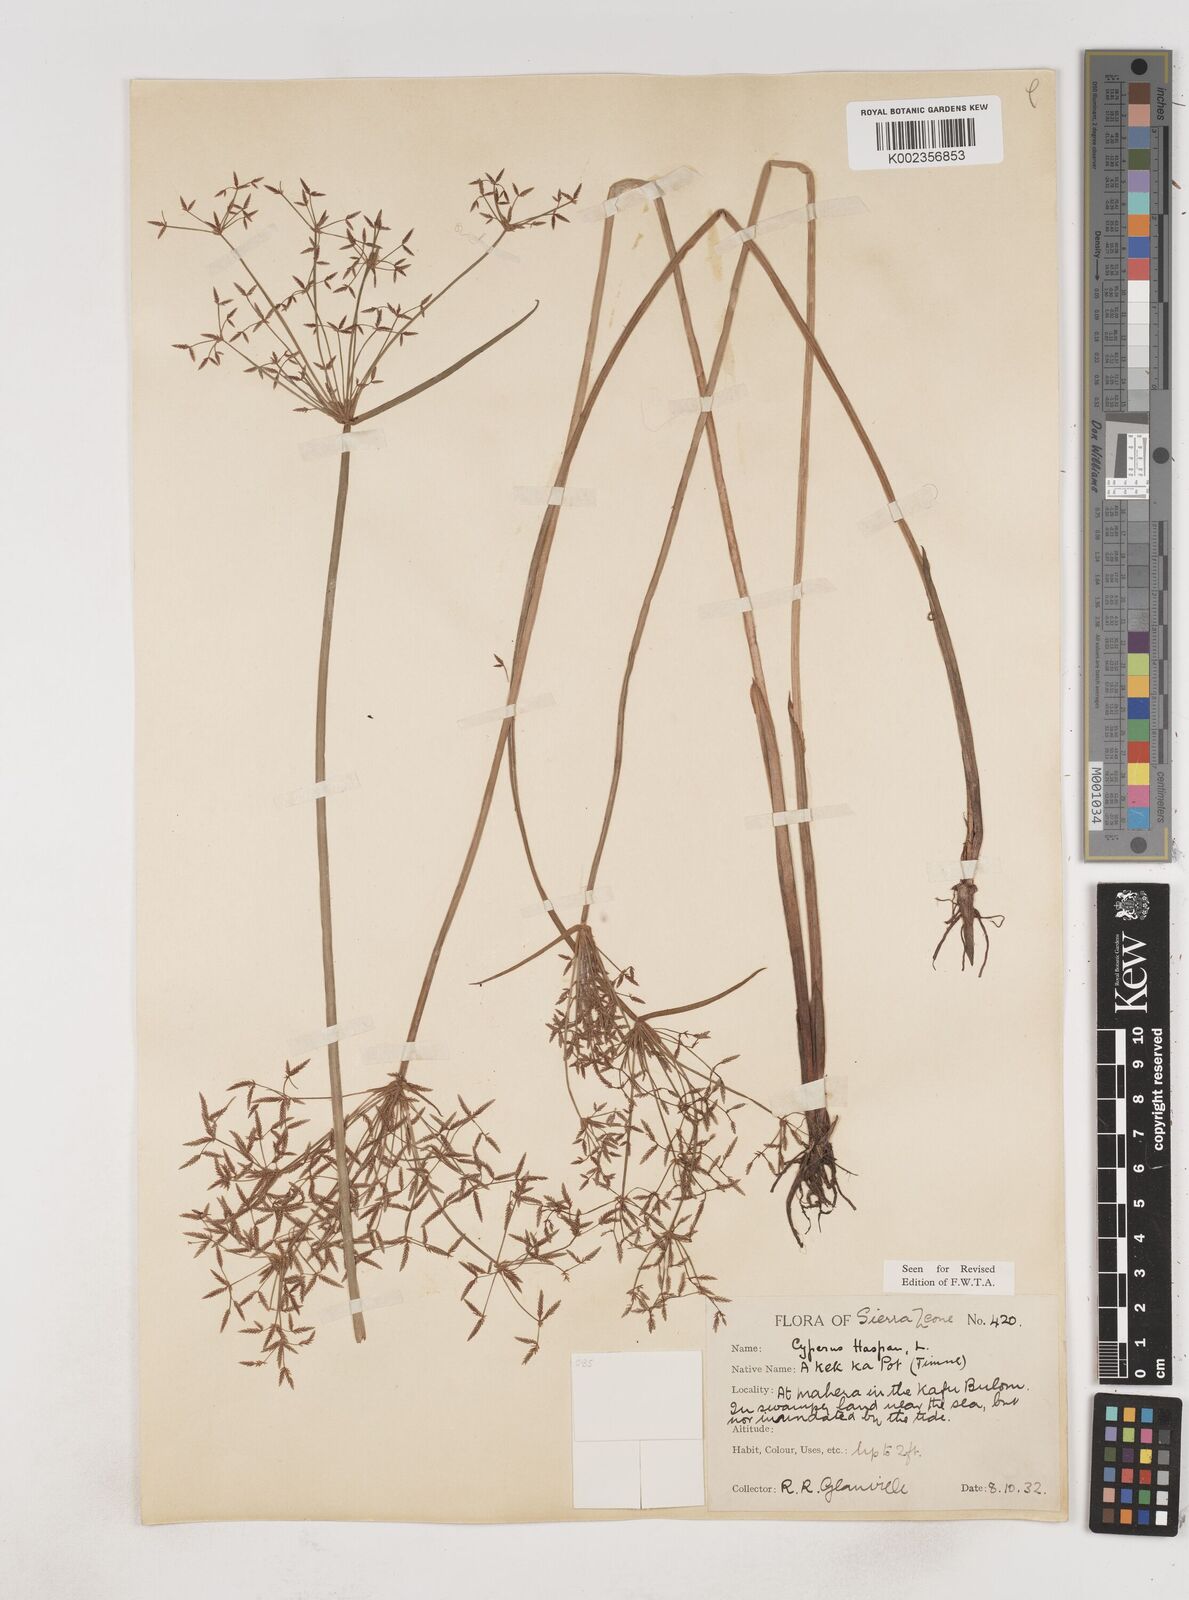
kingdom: Plantae
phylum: Tracheophyta
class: Liliopsida
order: Poales
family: Cyperaceae
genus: Cyperus
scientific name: Cyperus haspan
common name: Haspan flatsedge
